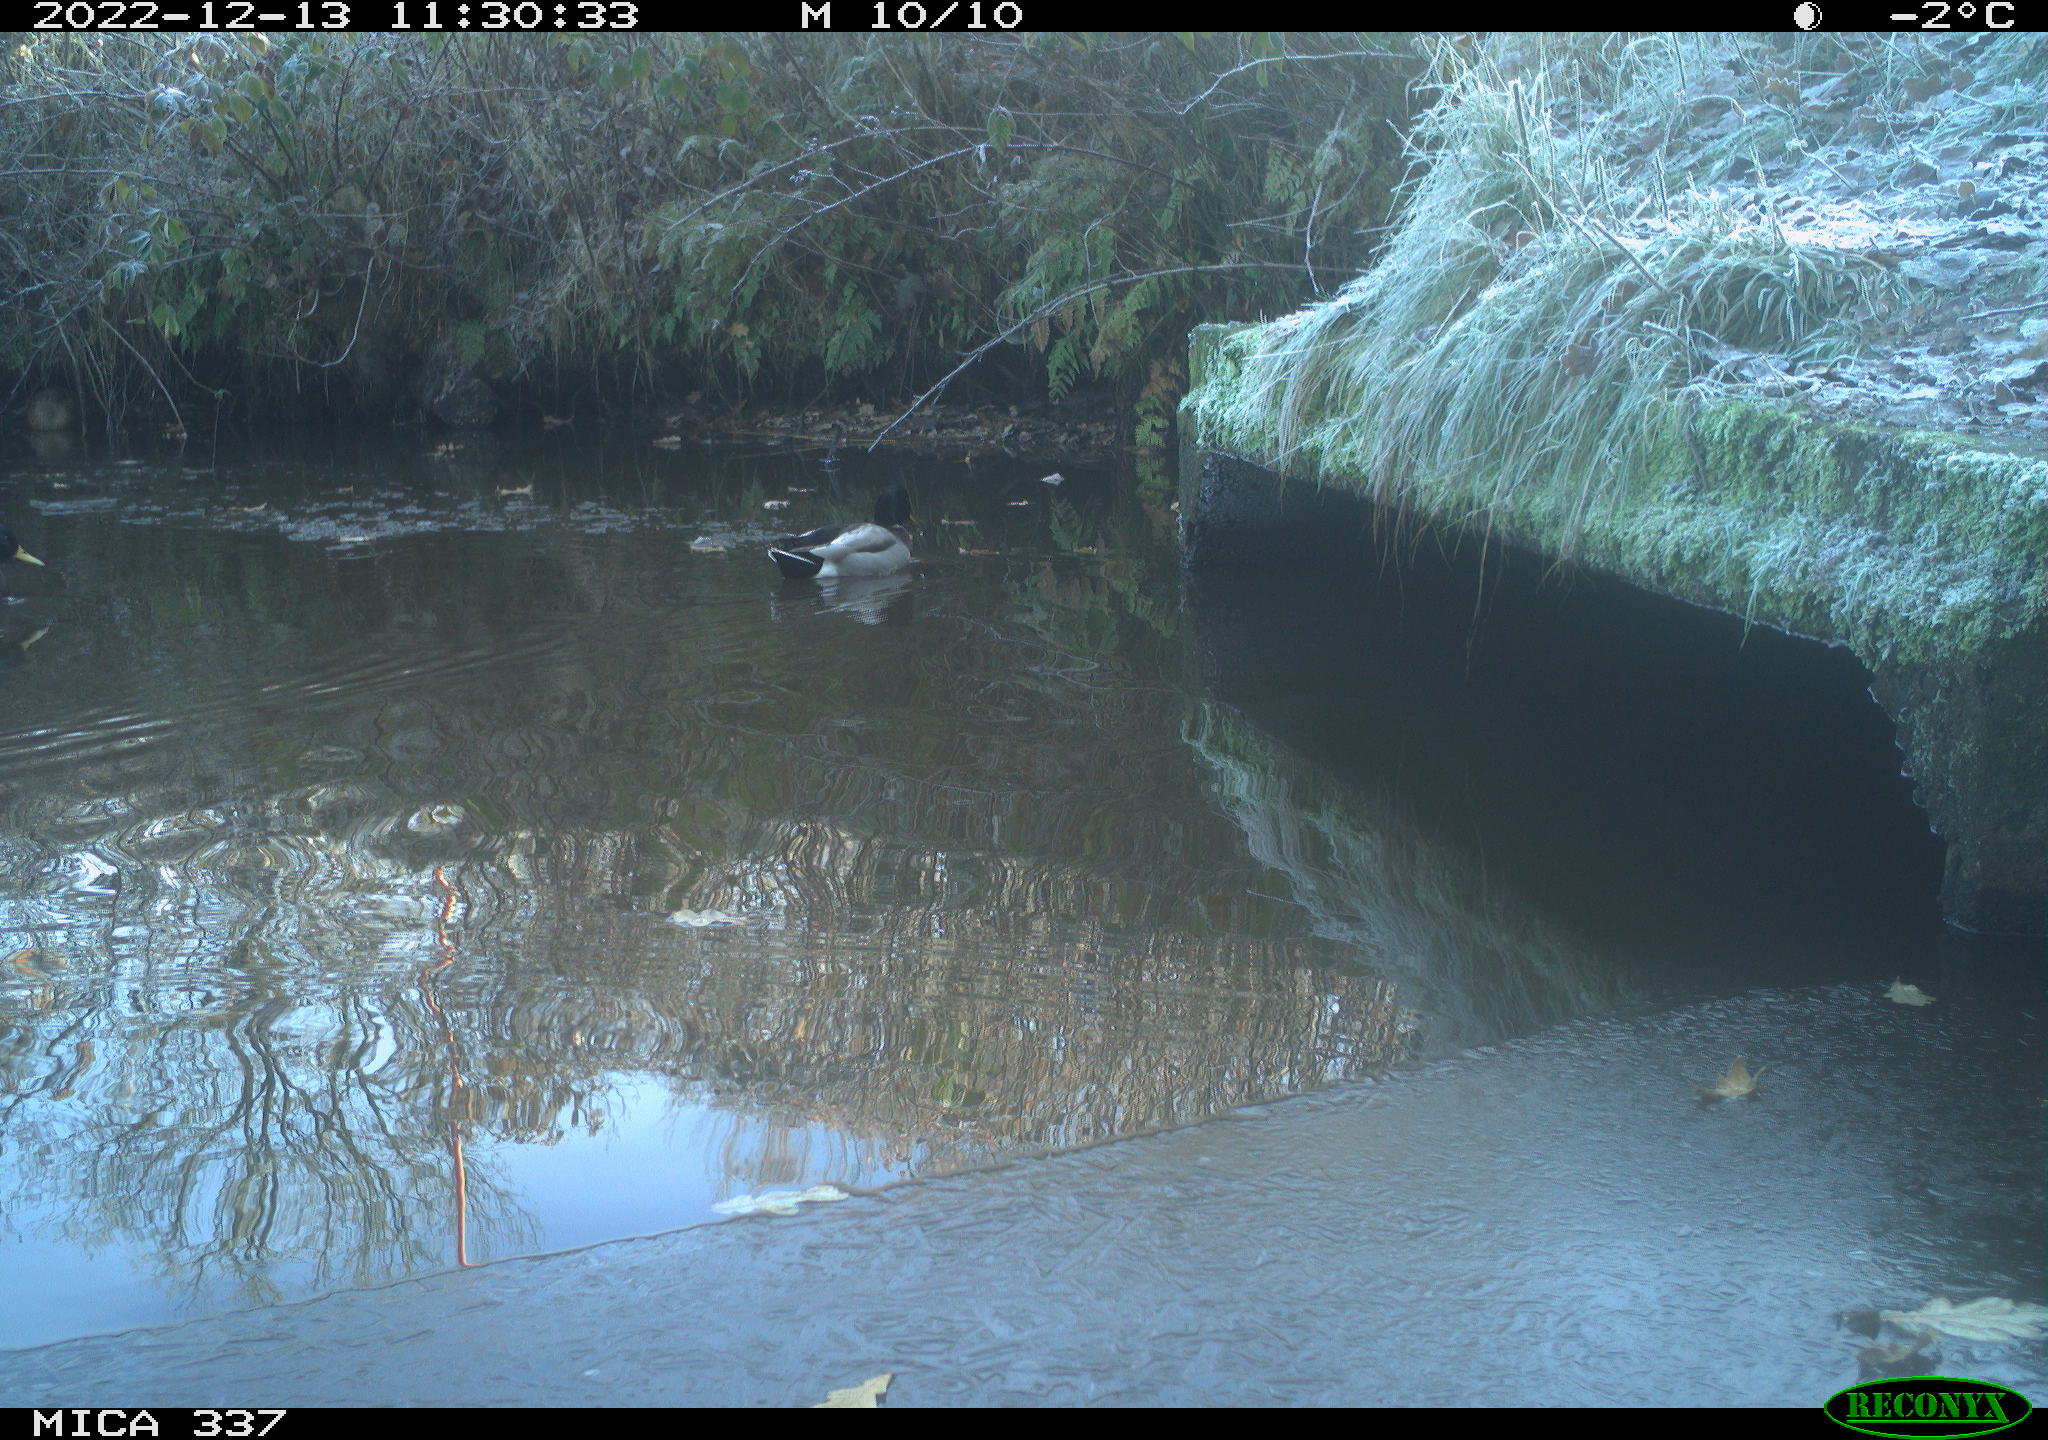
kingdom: Animalia
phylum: Chordata
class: Aves
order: Anseriformes
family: Anatidae
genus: Anas
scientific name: Anas
